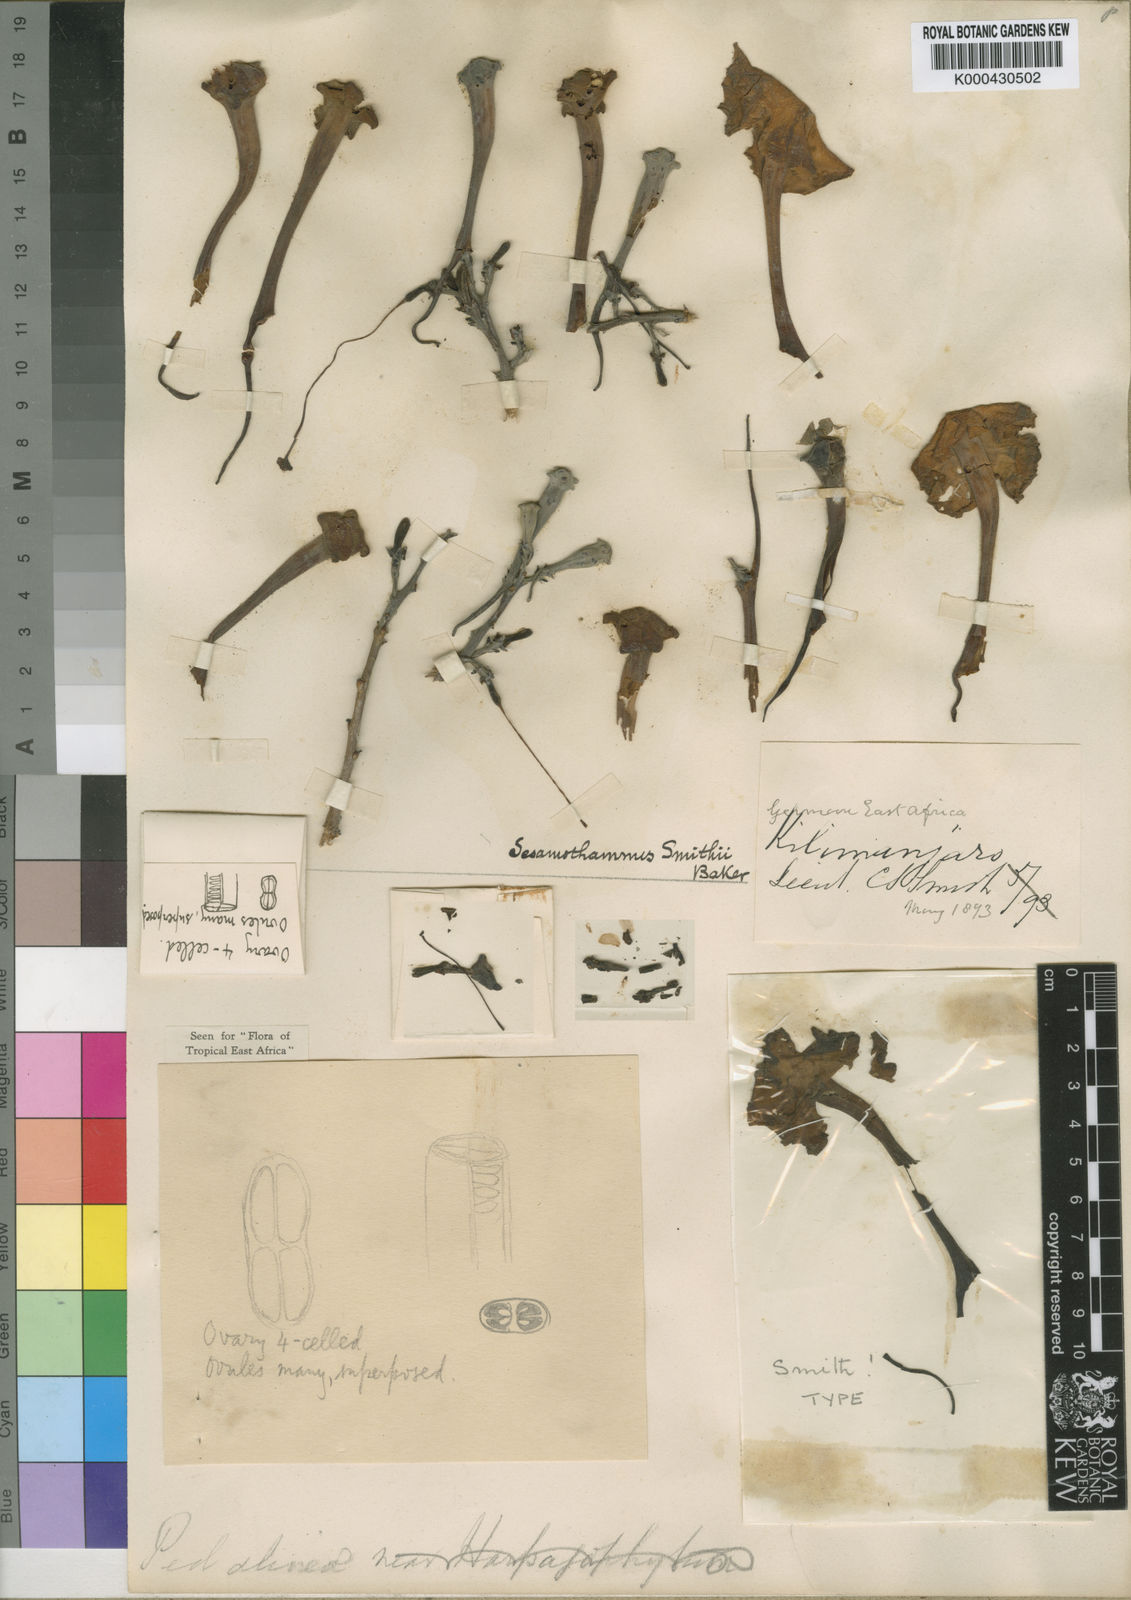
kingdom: Plantae
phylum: Tracheophyta
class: Magnoliopsida
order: Lamiales
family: Pedaliaceae
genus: Sesamothamnus
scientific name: Sesamothamnus rivae
